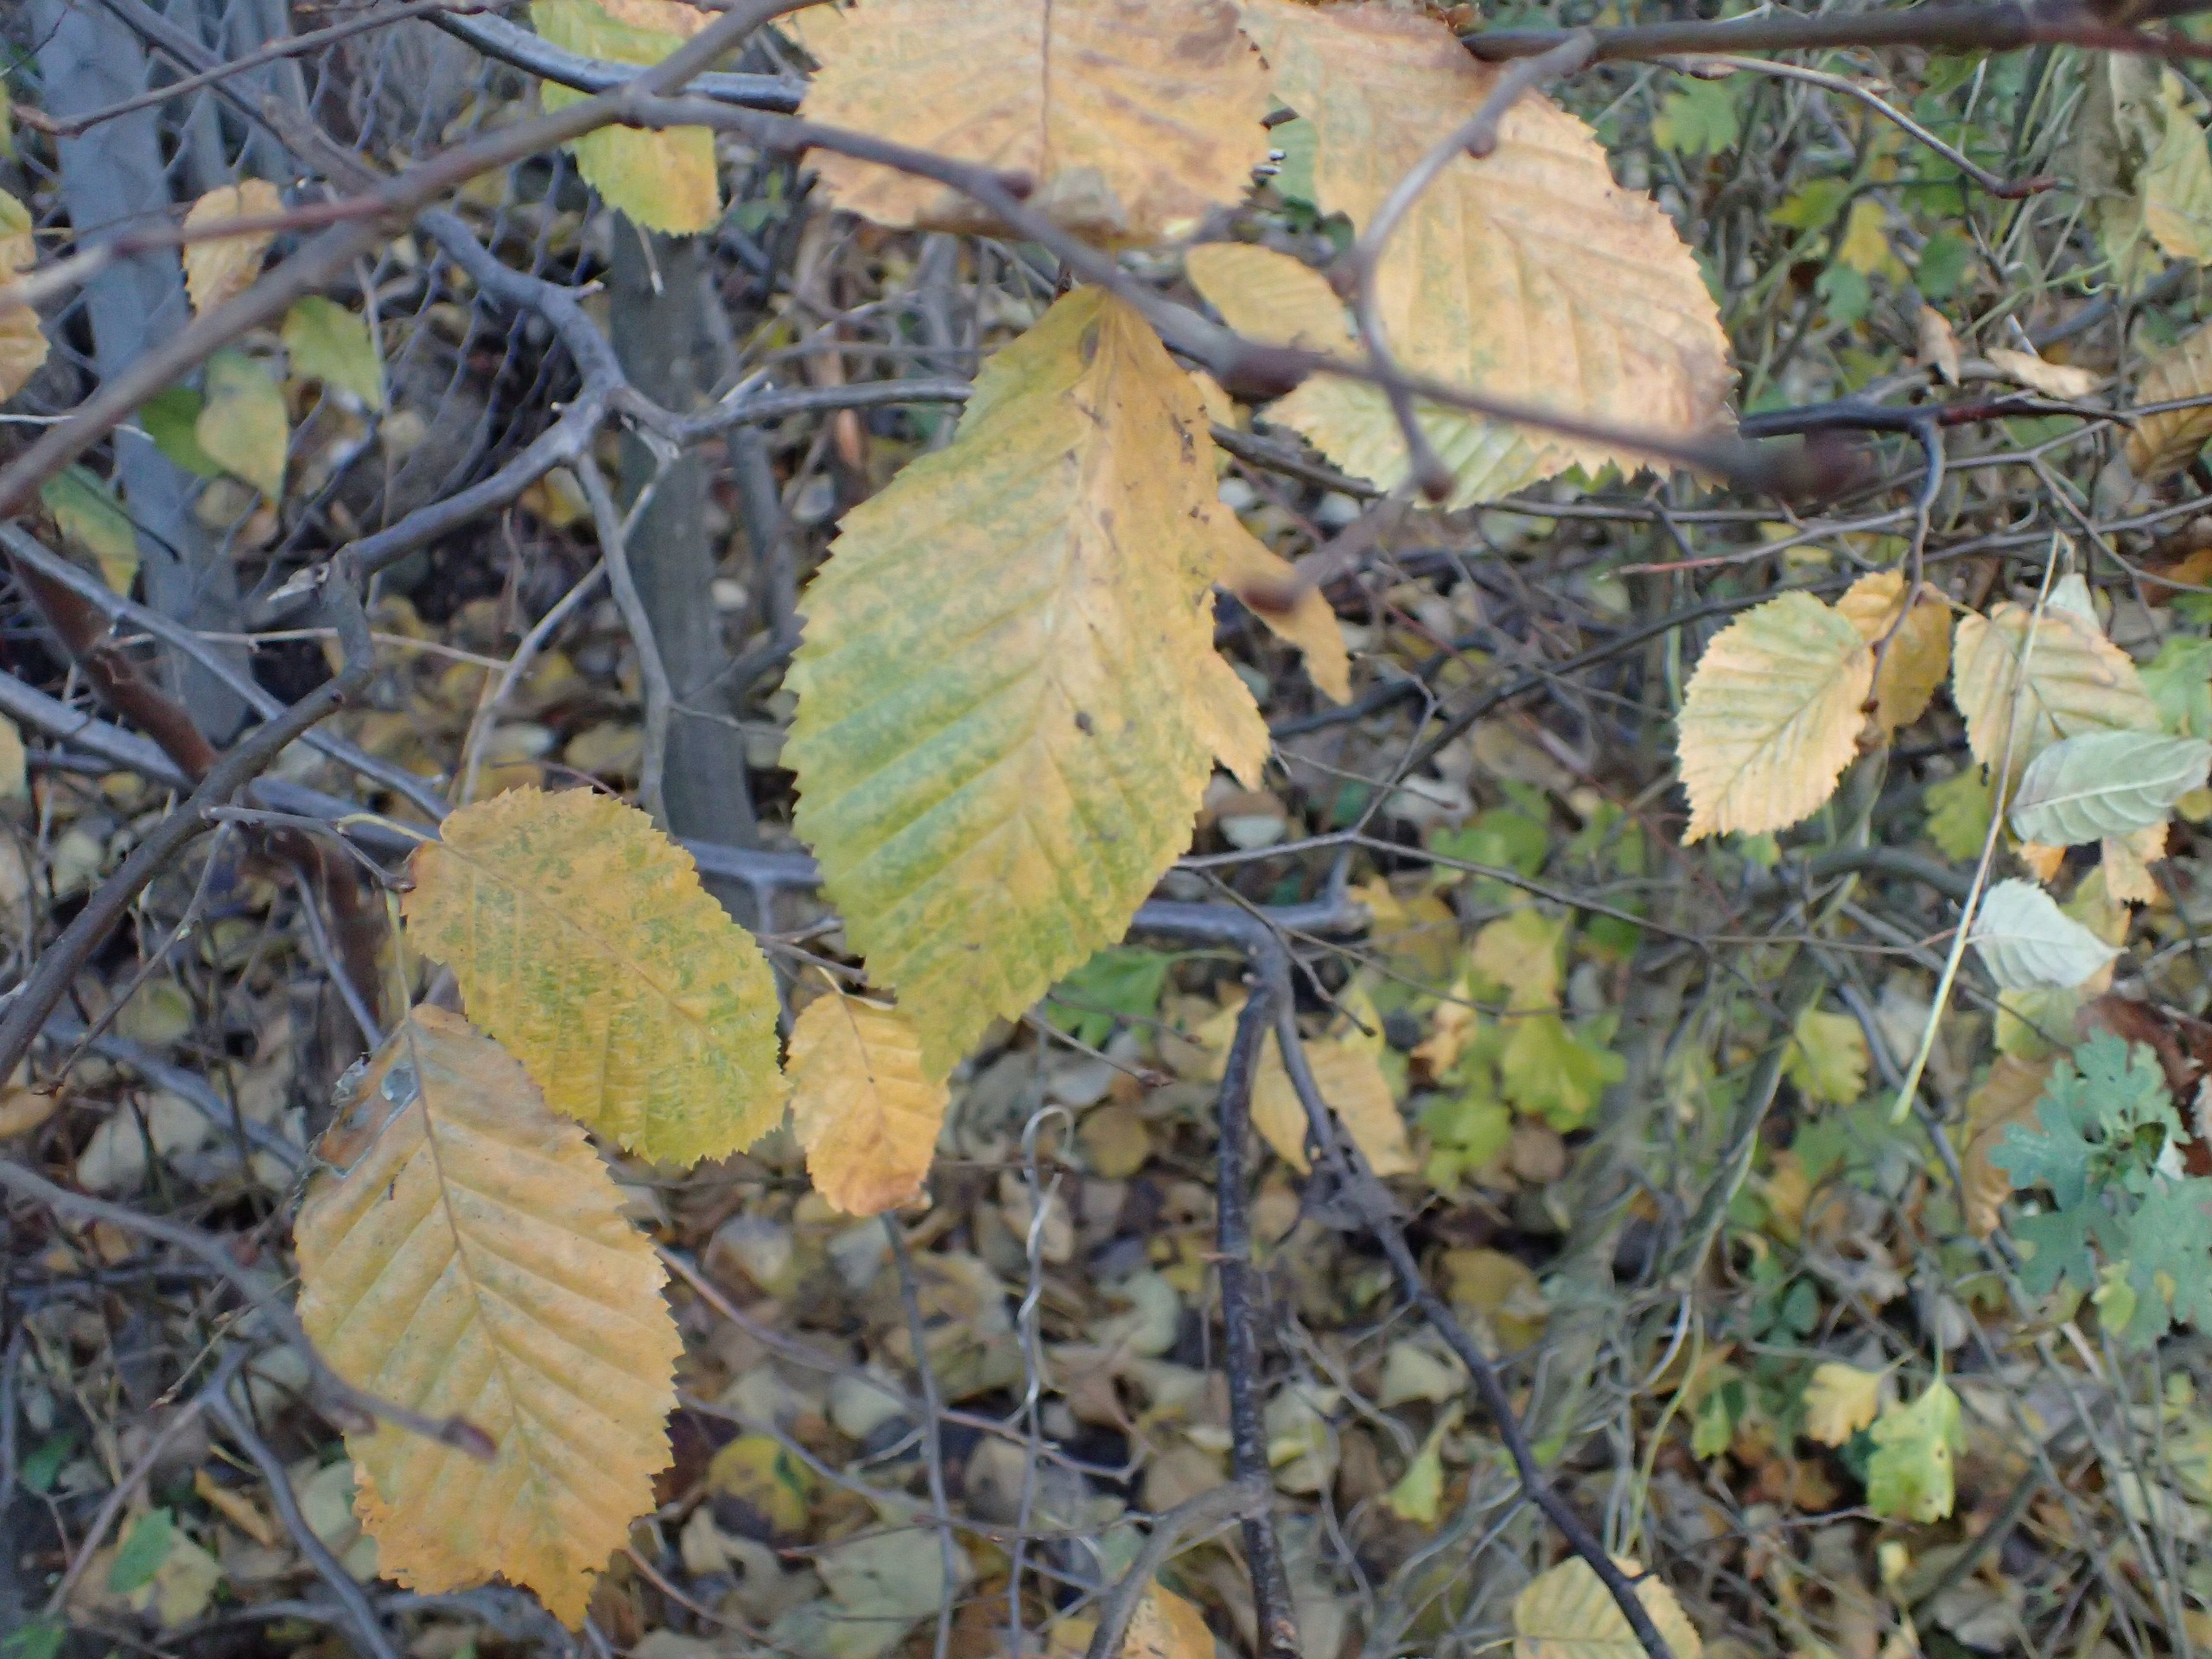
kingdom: Plantae
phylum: Tracheophyta
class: Magnoliopsida
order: Fagales
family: Betulaceae
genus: Carpinus
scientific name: Carpinus betulus
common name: Avnbøg
